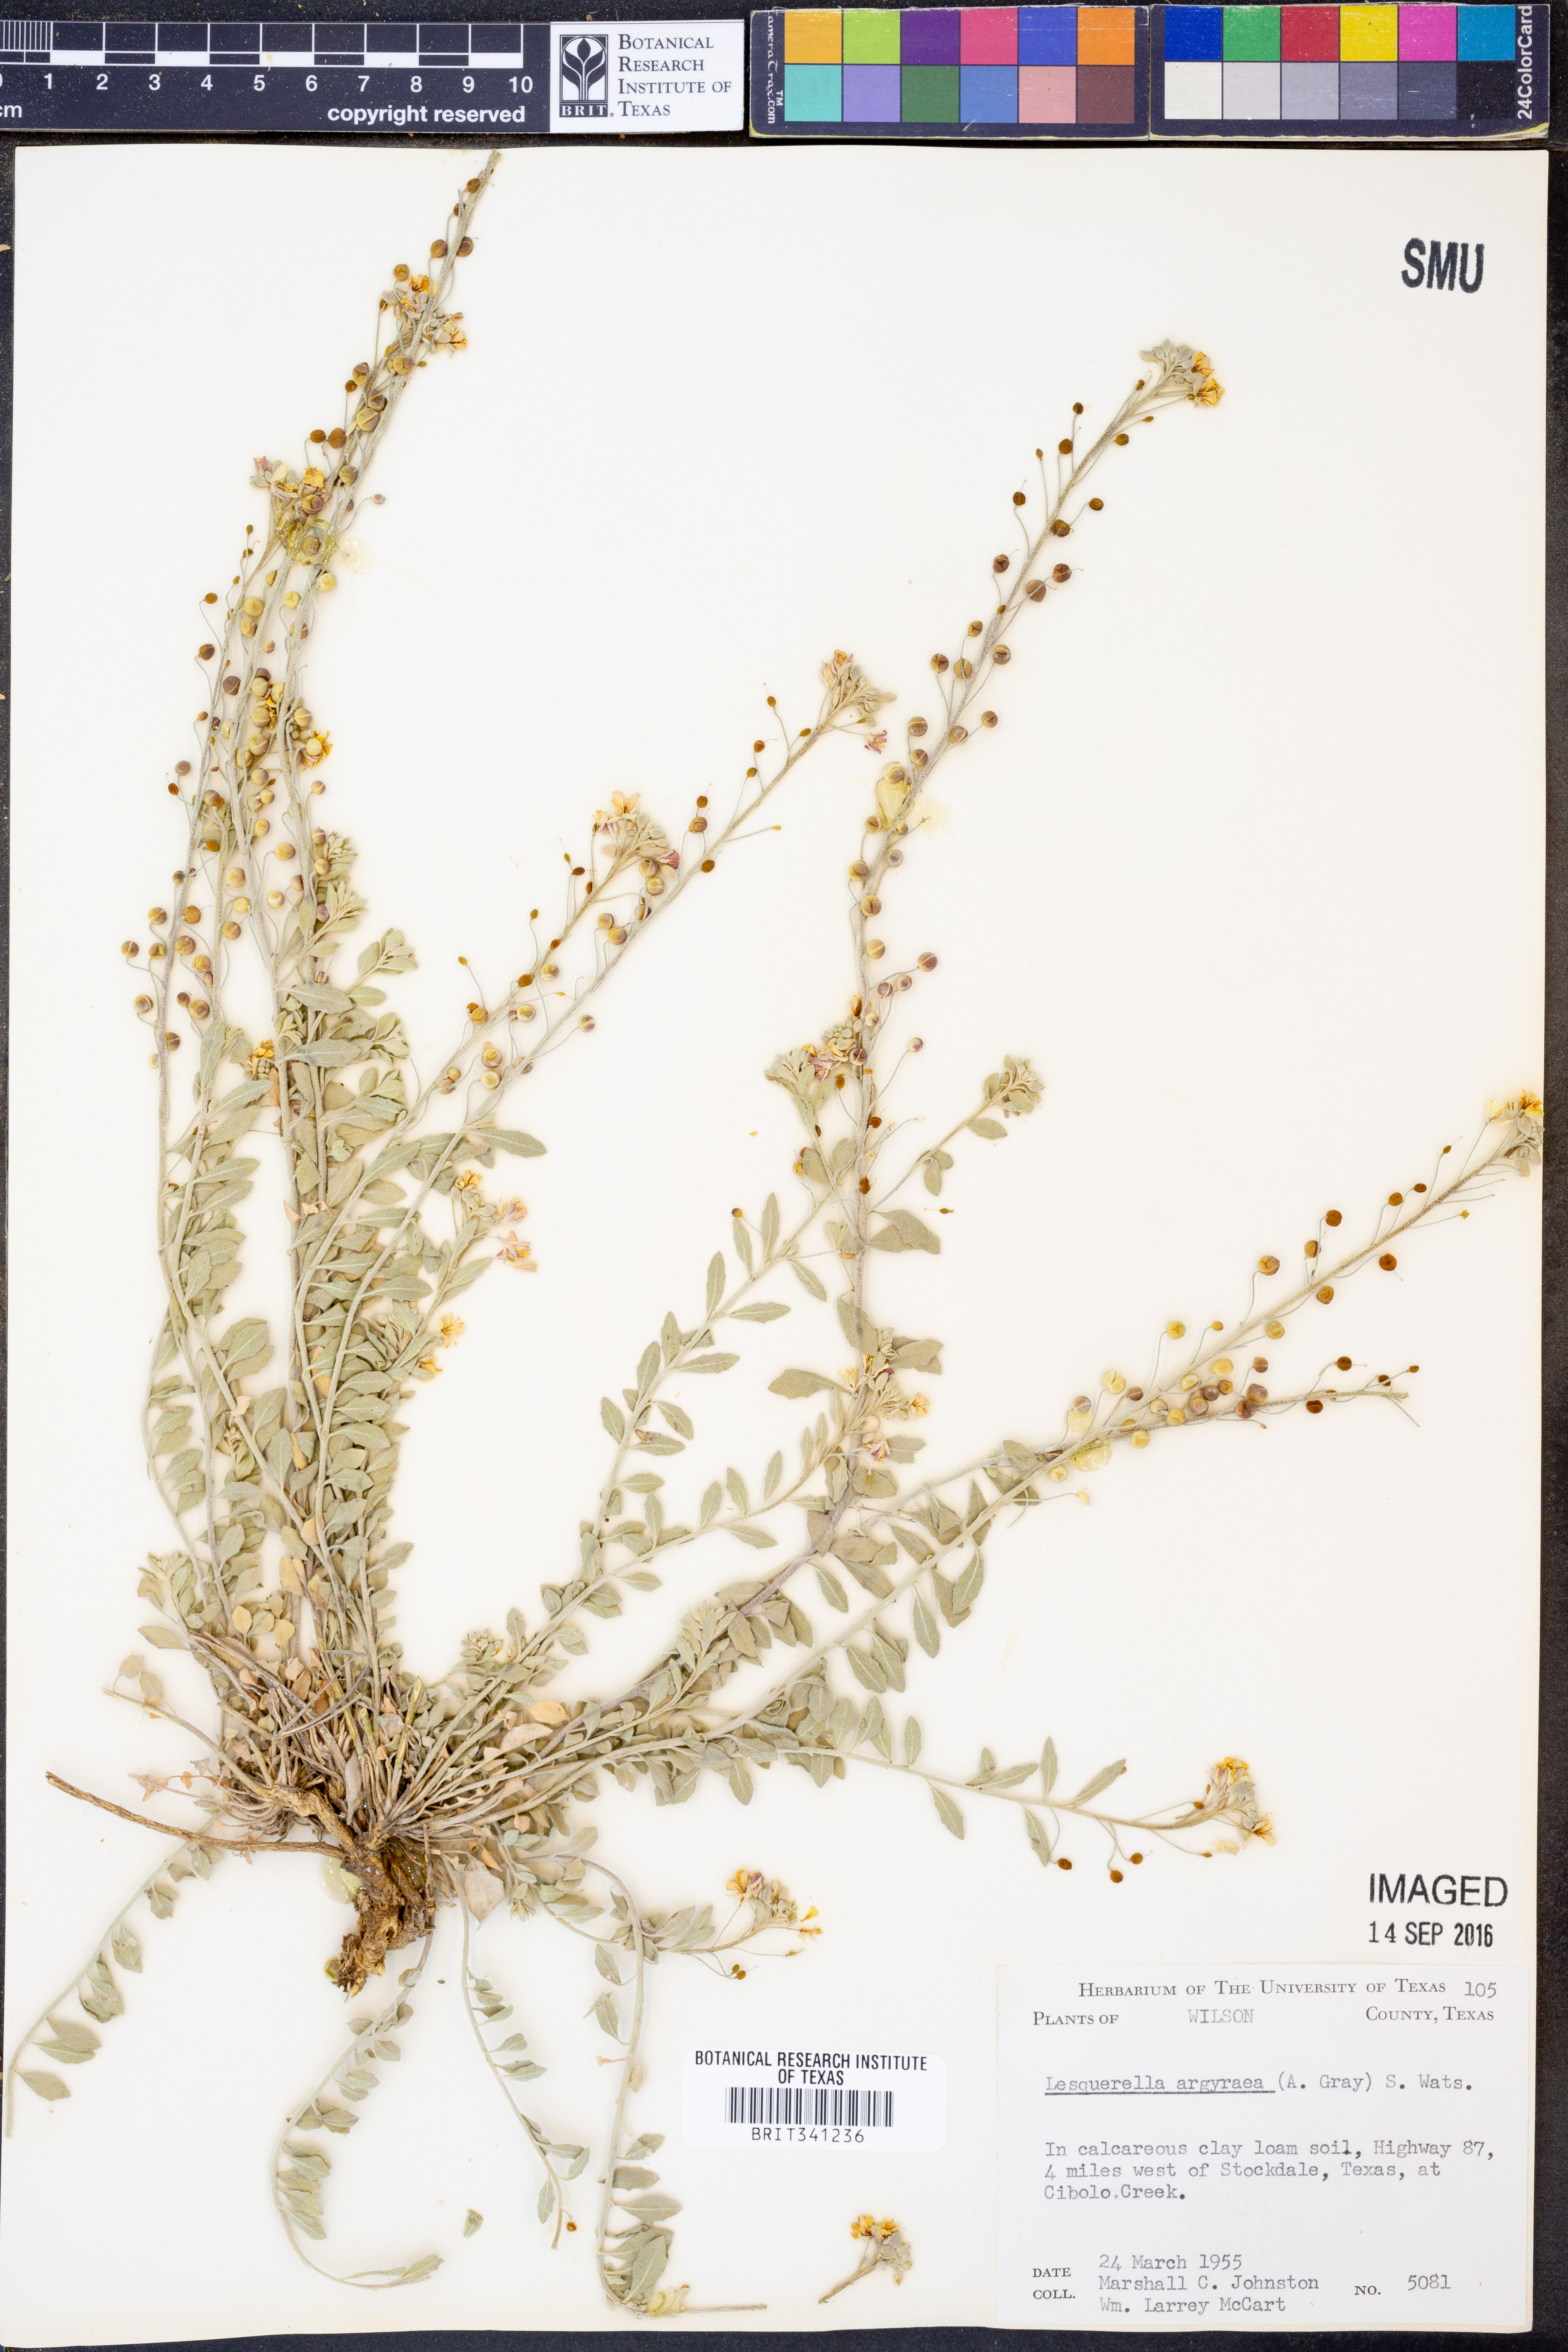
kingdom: Plantae
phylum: Tracheophyta
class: Magnoliopsida
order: Brassicales
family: Brassicaceae
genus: Physaria
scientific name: Physaria argyraea
